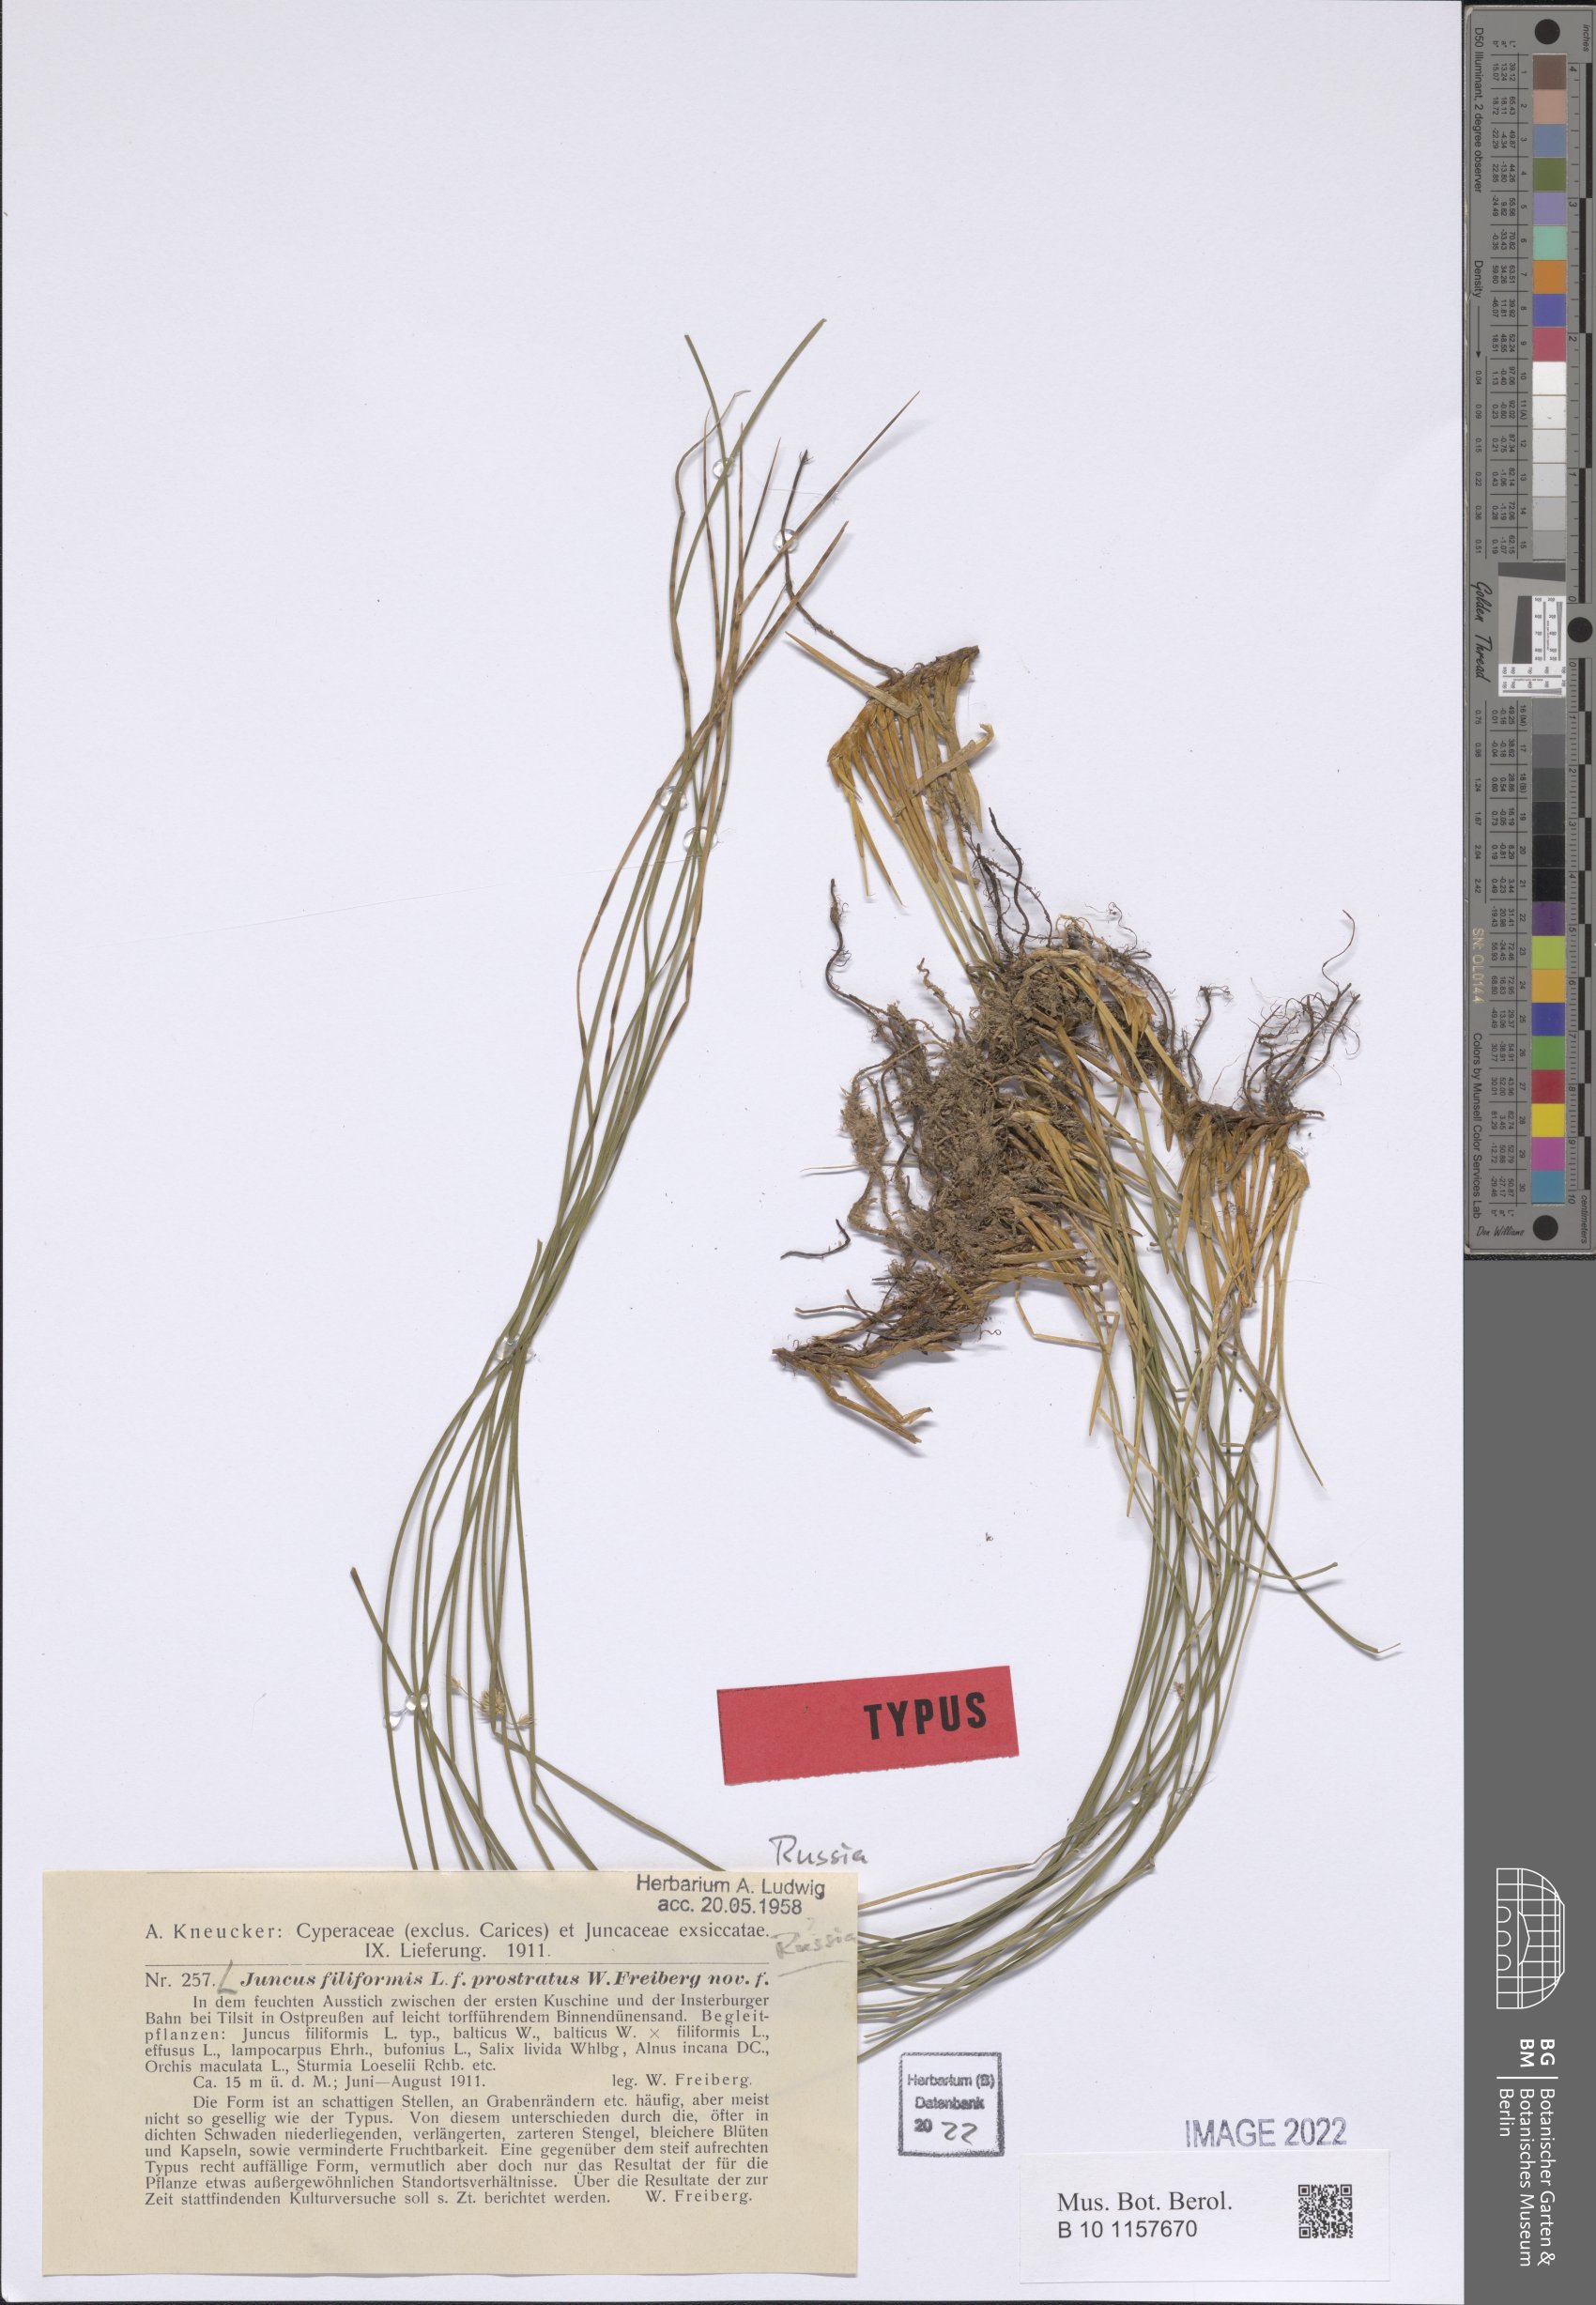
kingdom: Plantae
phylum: Tracheophyta
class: Liliopsida
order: Poales
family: Juncaceae
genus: Juncus
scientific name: Juncus filiformis
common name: Thread rush
